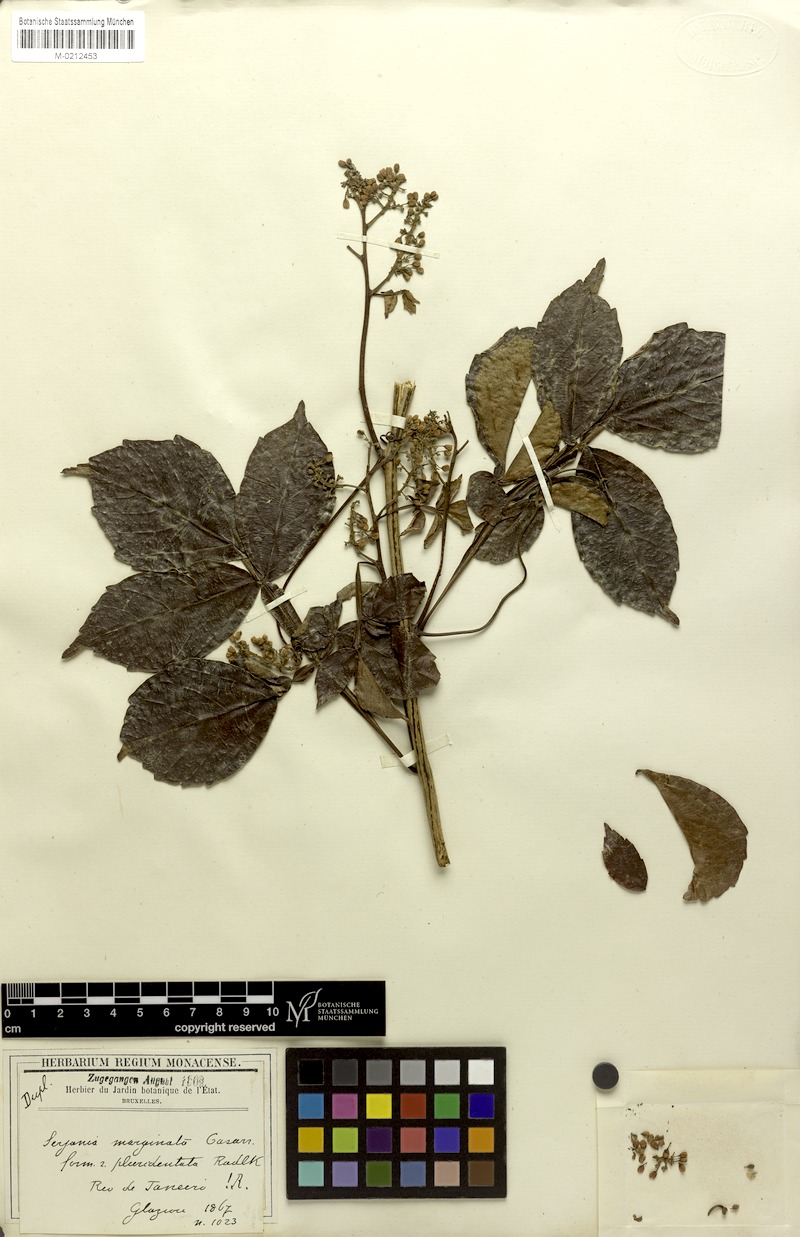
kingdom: Plantae
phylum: Tracheophyta
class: Magnoliopsida
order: Sapindales
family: Sapindaceae
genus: Serjania
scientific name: Serjania marginata
